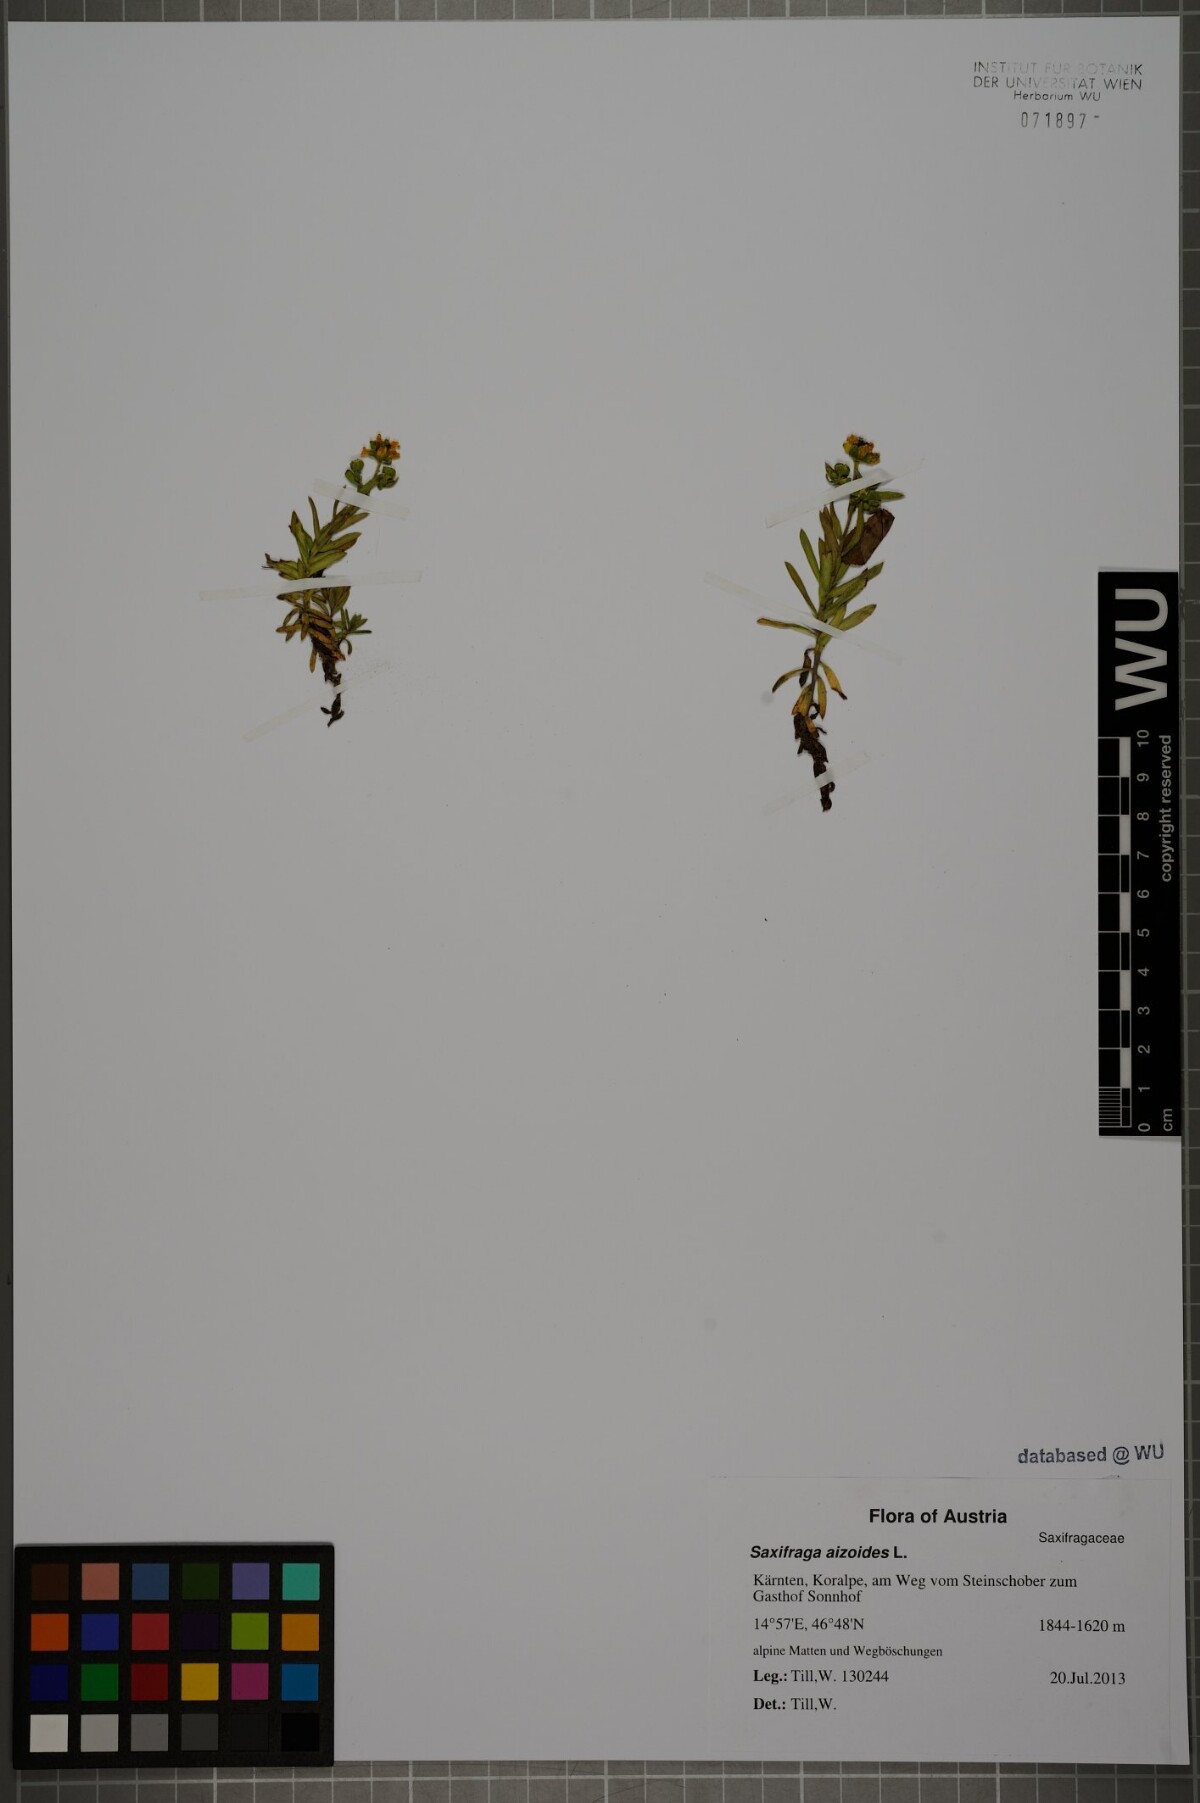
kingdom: Plantae
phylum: Tracheophyta
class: Magnoliopsida
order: Saxifragales
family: Saxifragaceae
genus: Saxifraga
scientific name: Saxifraga aizoides
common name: Yellow mountain saxifrage
